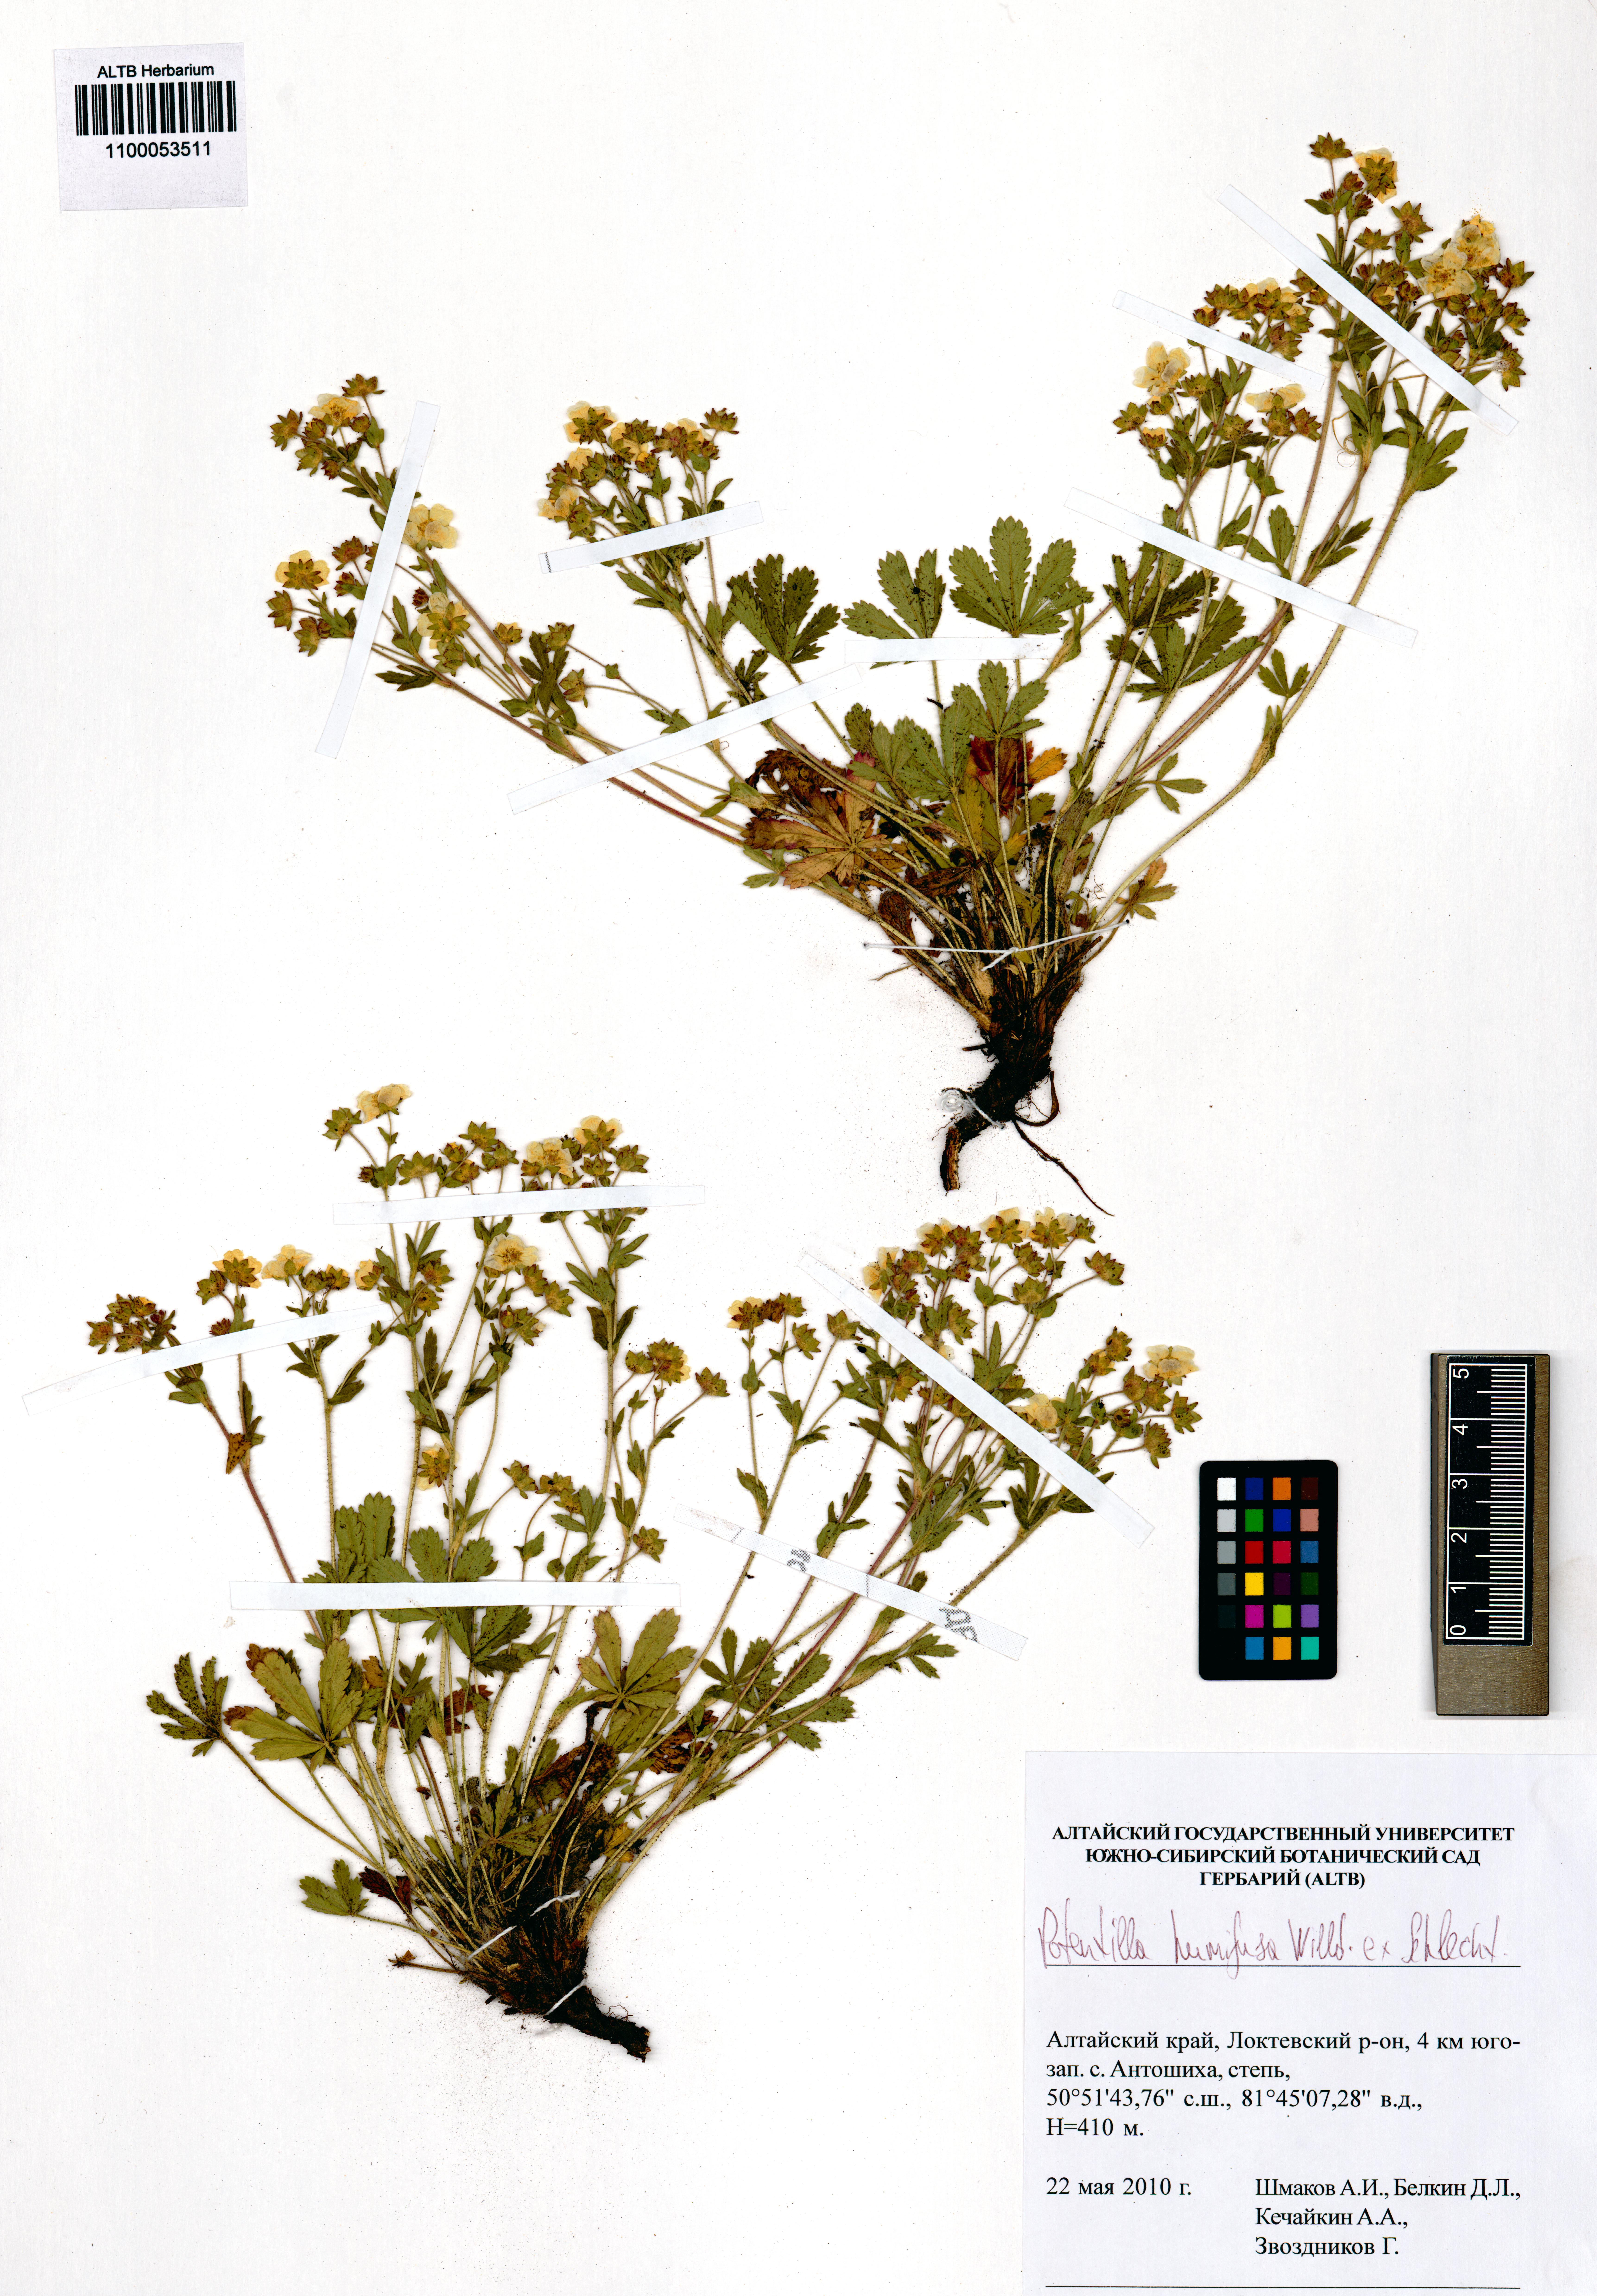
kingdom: Plantae
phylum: Tracheophyta
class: Magnoliopsida
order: Rosales
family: Rosaceae
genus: Potentilla
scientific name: Potentilla humifusa
